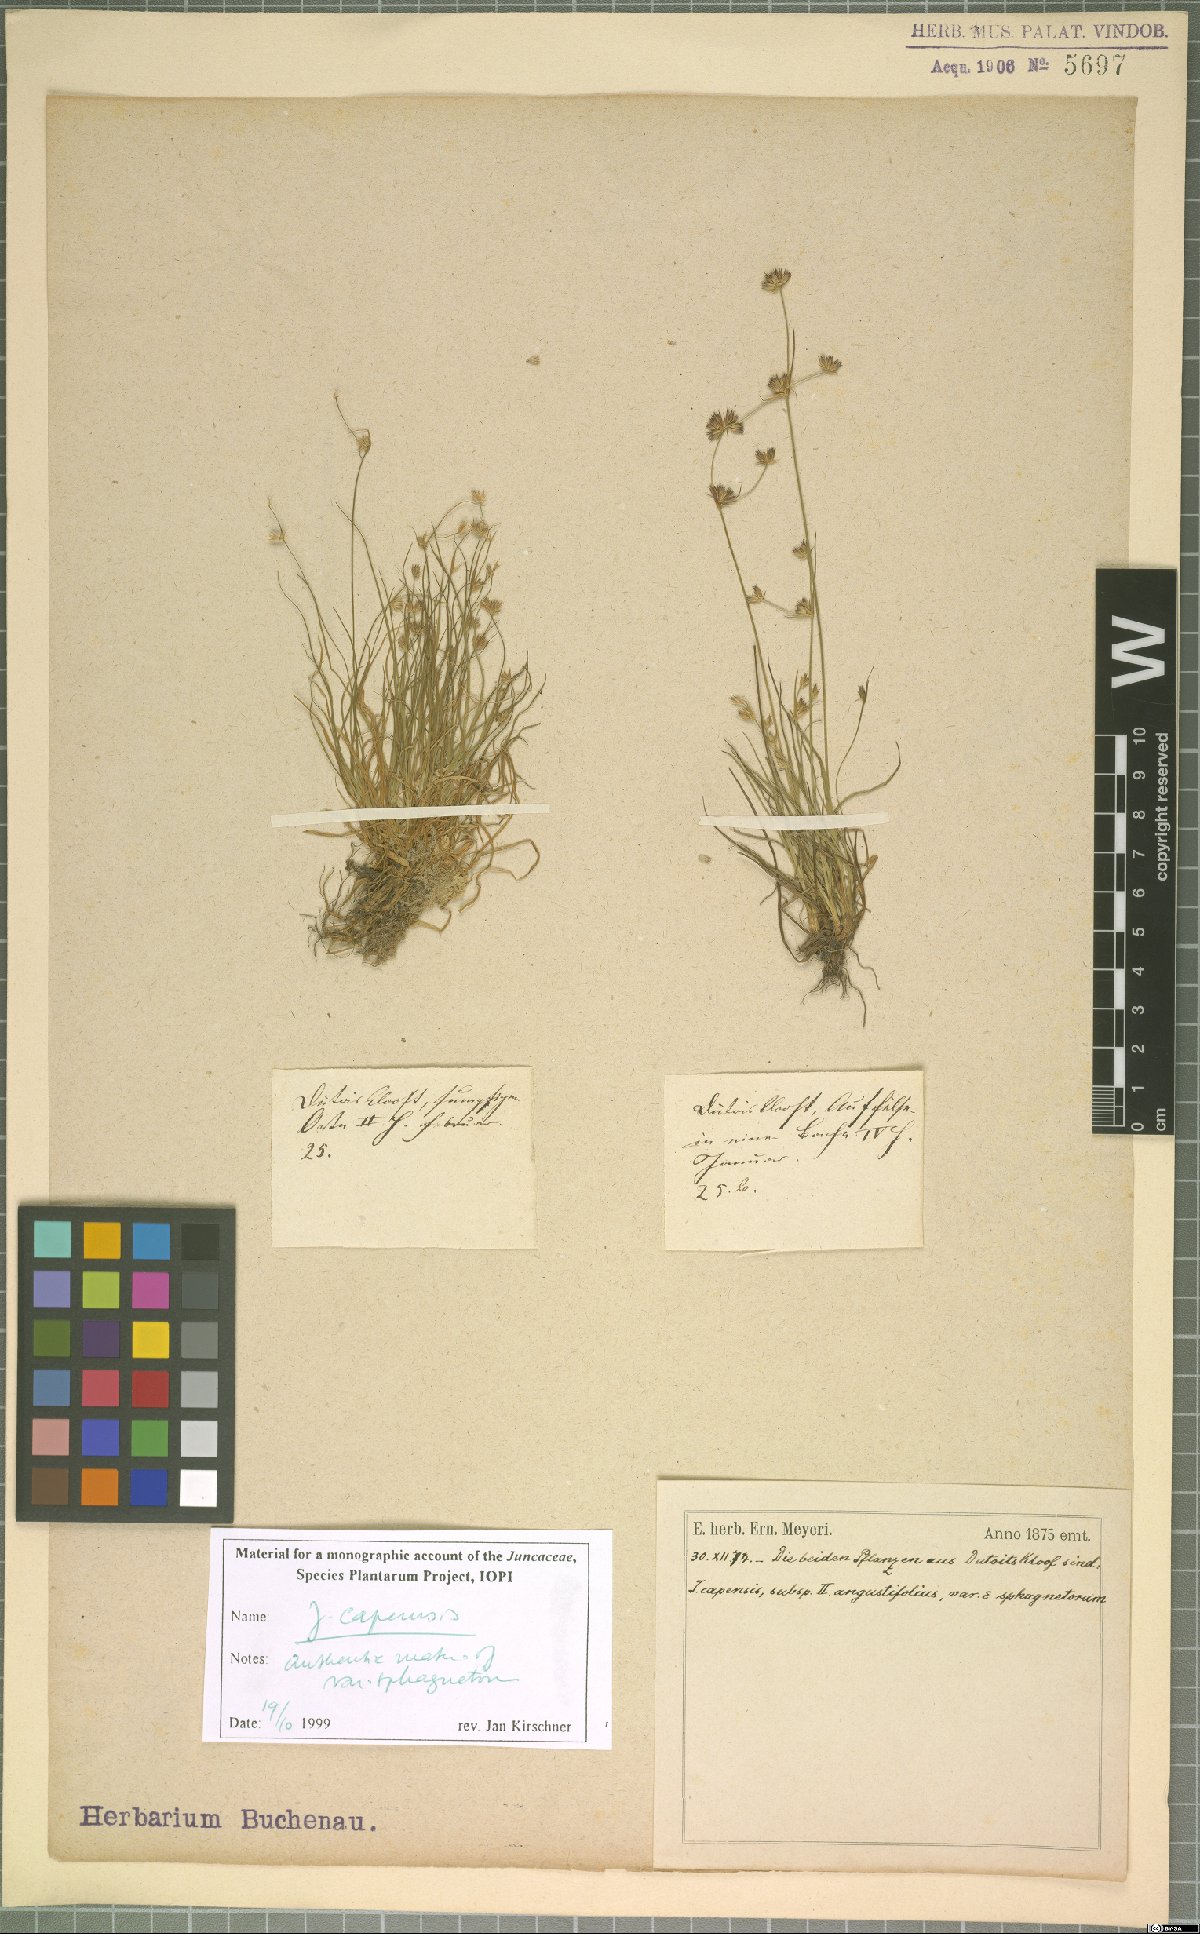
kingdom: Plantae
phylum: Tracheophyta
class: Liliopsida
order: Poales
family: Juncaceae
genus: Juncus
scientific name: Juncus capensis
